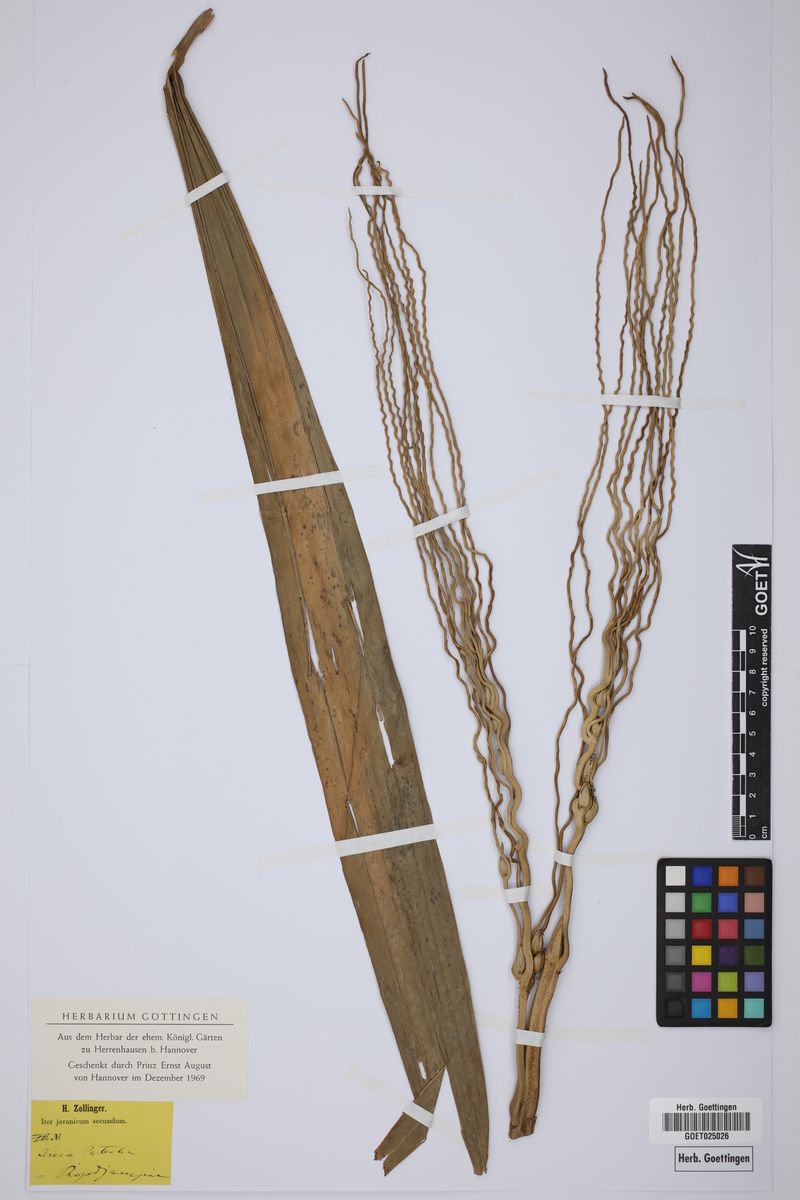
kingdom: Plantae
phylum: Tracheophyta
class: Liliopsida
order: Arecales
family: Arecaceae
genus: Areca
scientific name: Areca catechu
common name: Indian-nut
